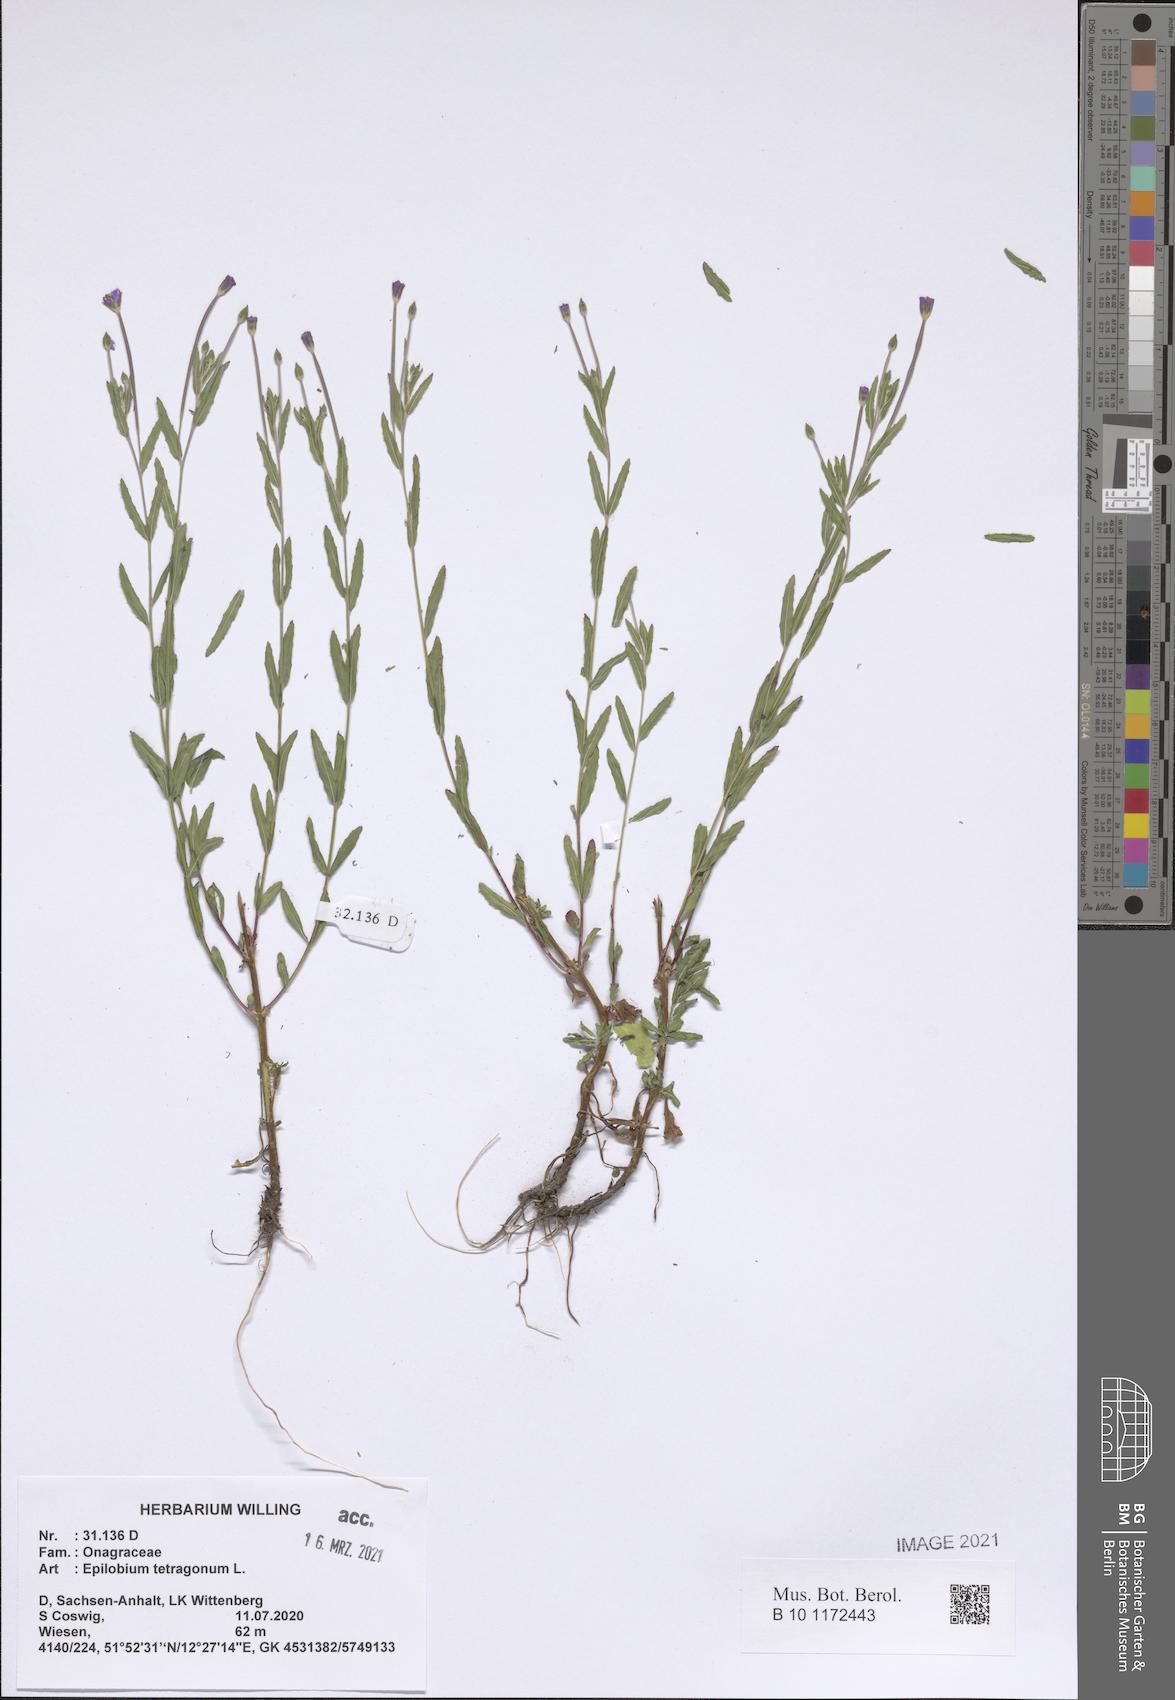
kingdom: Plantae
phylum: Tracheophyta
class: Magnoliopsida
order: Myrtales
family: Onagraceae
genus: Epilobium
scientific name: Epilobium tetragonum
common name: Square-stemmed willowherb
